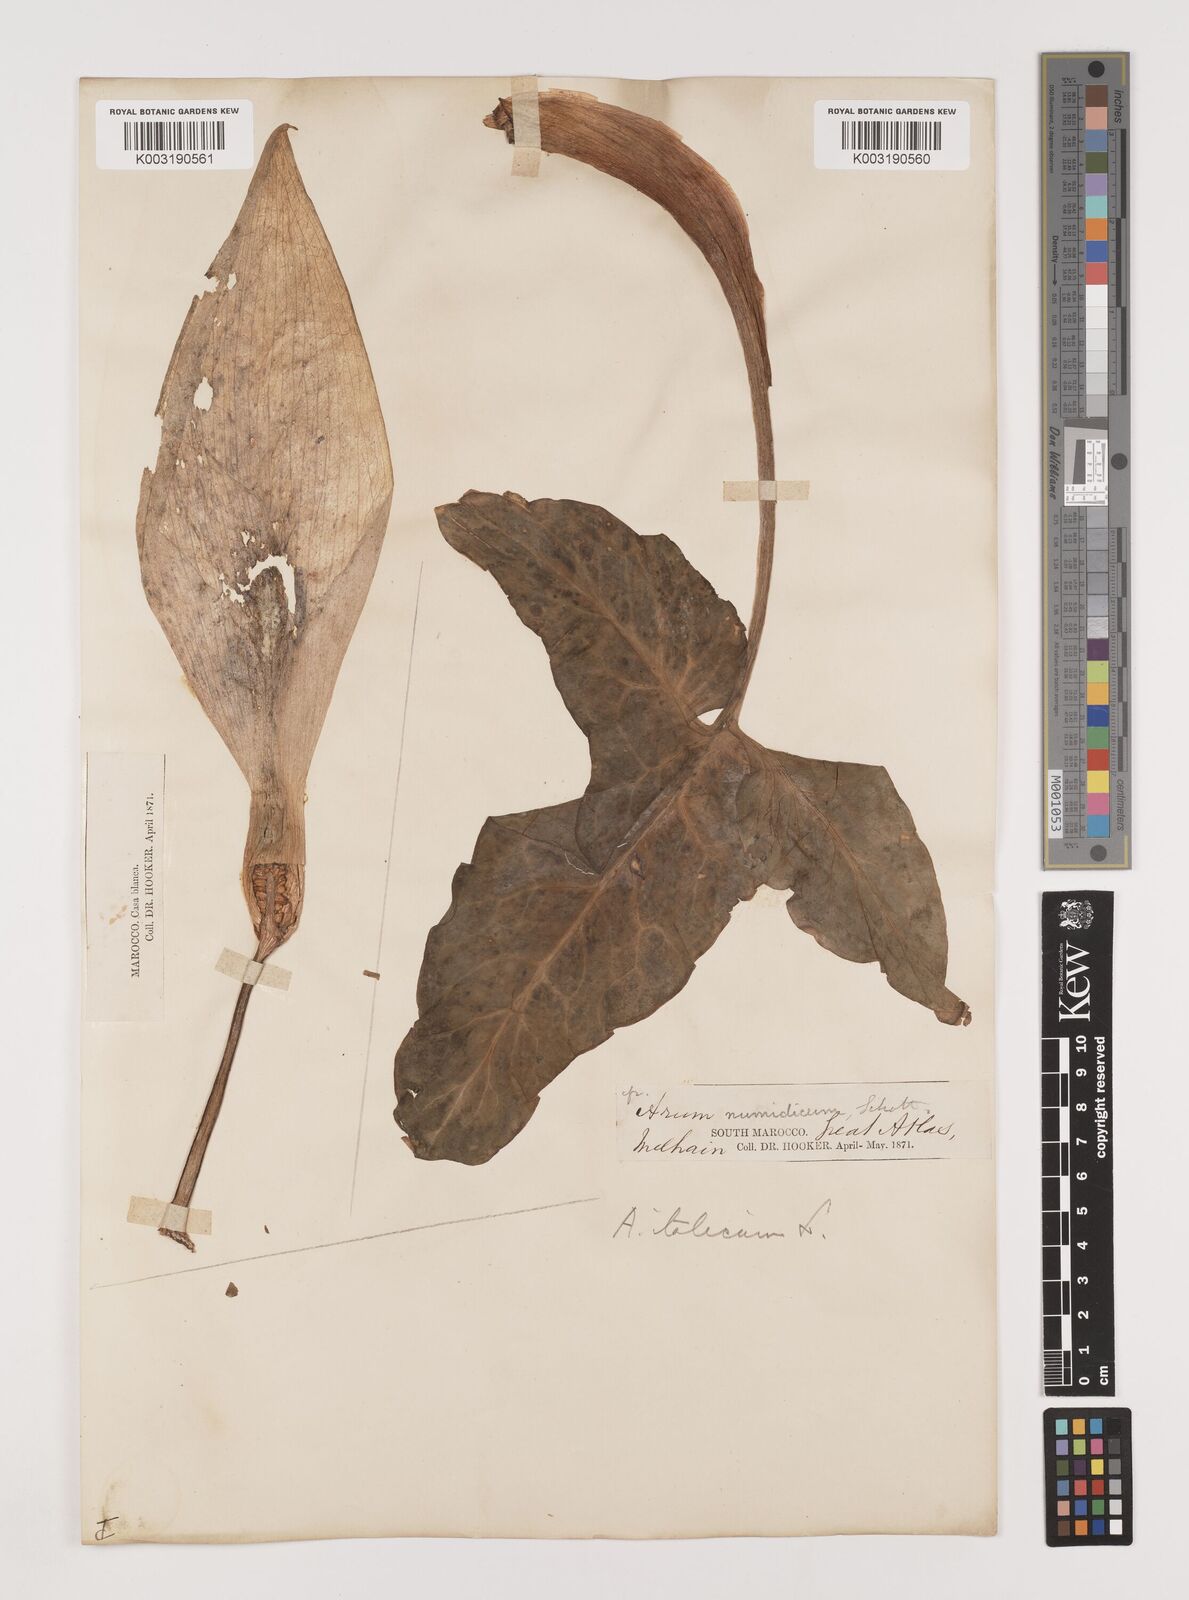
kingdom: Plantae
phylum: Tracheophyta
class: Liliopsida
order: Alismatales
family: Araceae
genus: Arum
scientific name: Arum italicum
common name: Italian lords-and-ladies
